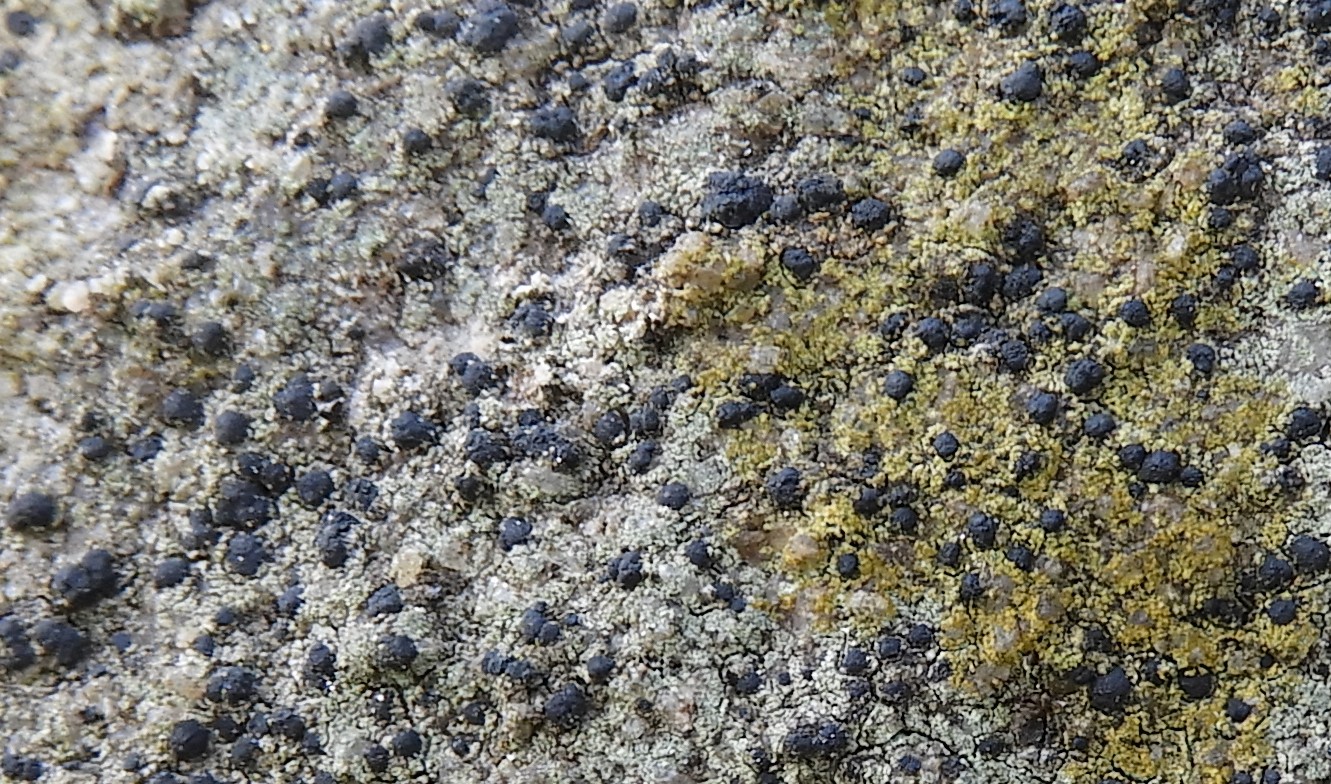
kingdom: Fungi
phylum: Ascomycota
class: Lecanoromycetes
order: Lecanorales
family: Lecanoraceae
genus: Lecidella
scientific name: Lecidella scabra
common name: skurvet skivelav
